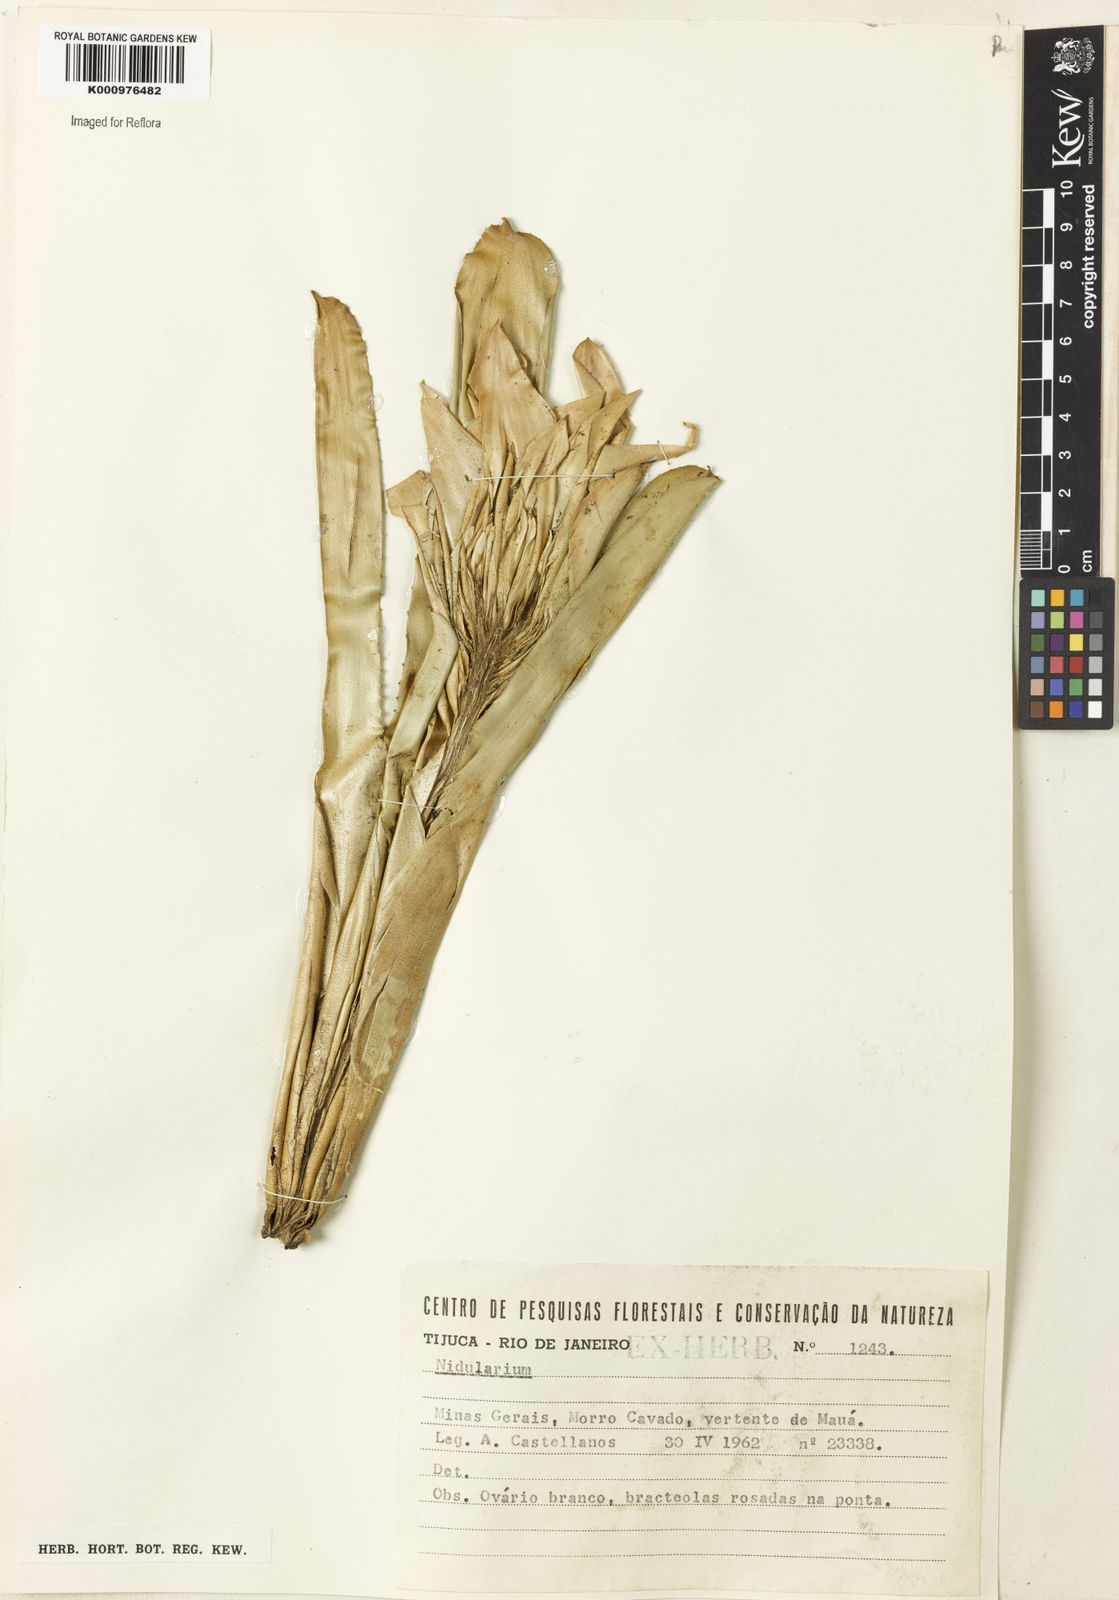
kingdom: Plantae
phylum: Tracheophyta
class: Liliopsida
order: Poales
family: Bromeliaceae
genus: Nidularium
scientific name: Nidularium
